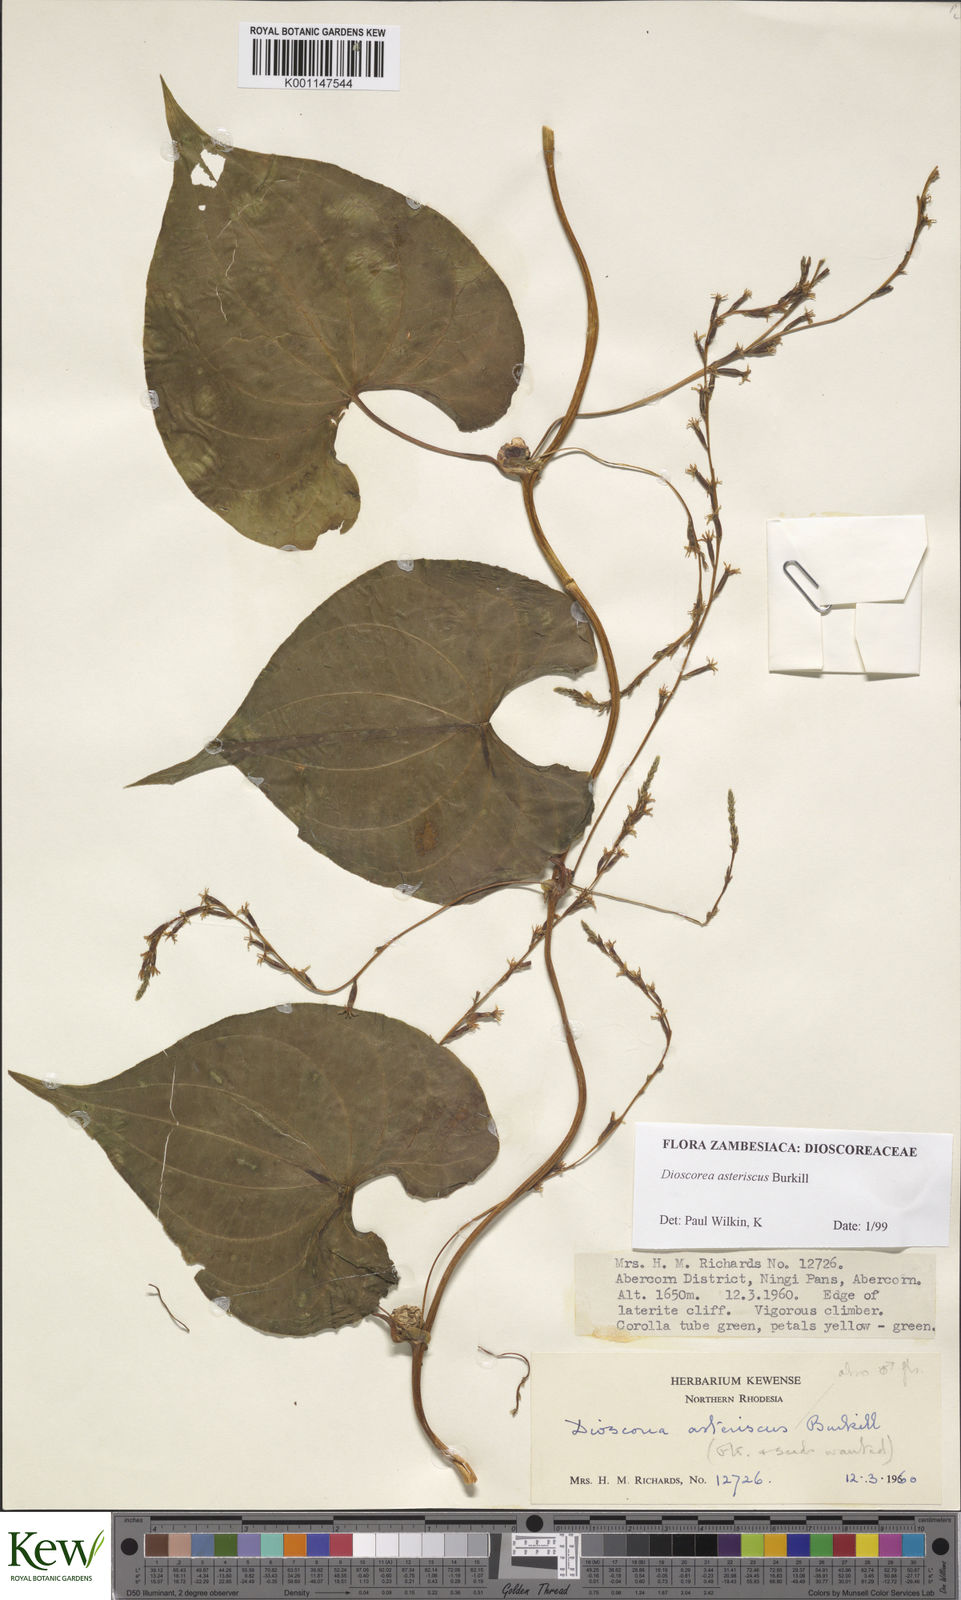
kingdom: Plantae
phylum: Tracheophyta
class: Liliopsida
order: Dioscoreales
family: Dioscoreaceae
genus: Dioscorea
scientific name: Dioscorea asteriscus
